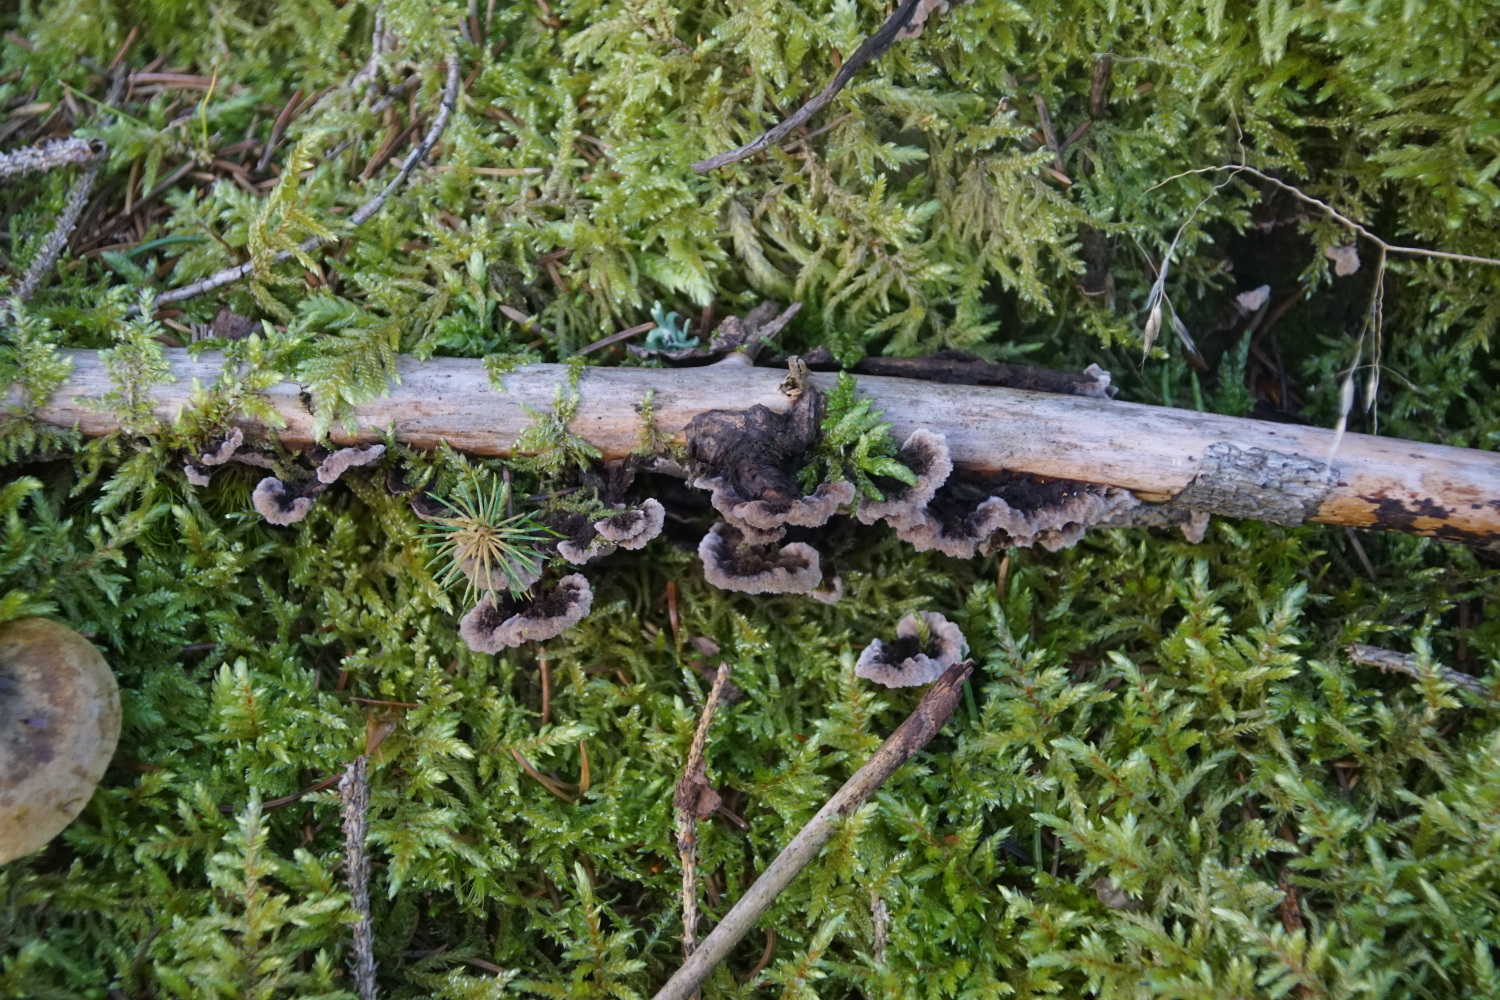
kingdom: Fungi
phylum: Basidiomycota
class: Agaricomycetes
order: Thelephorales
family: Thelephoraceae
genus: Thelephora
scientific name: Thelephora terrestris
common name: fliget frynsesvamp
